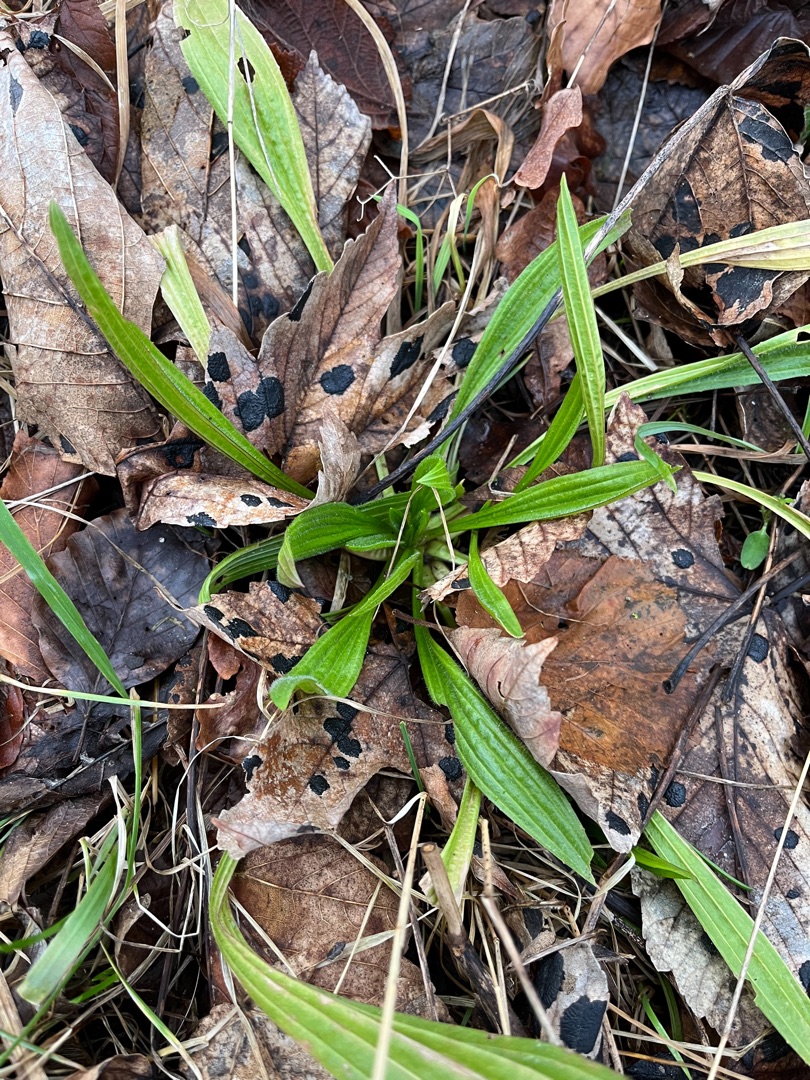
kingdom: Plantae
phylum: Tracheophyta
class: Magnoliopsida
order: Lamiales
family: Plantaginaceae
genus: Plantago
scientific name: Plantago lanceolata
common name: Lancet-vejbred
